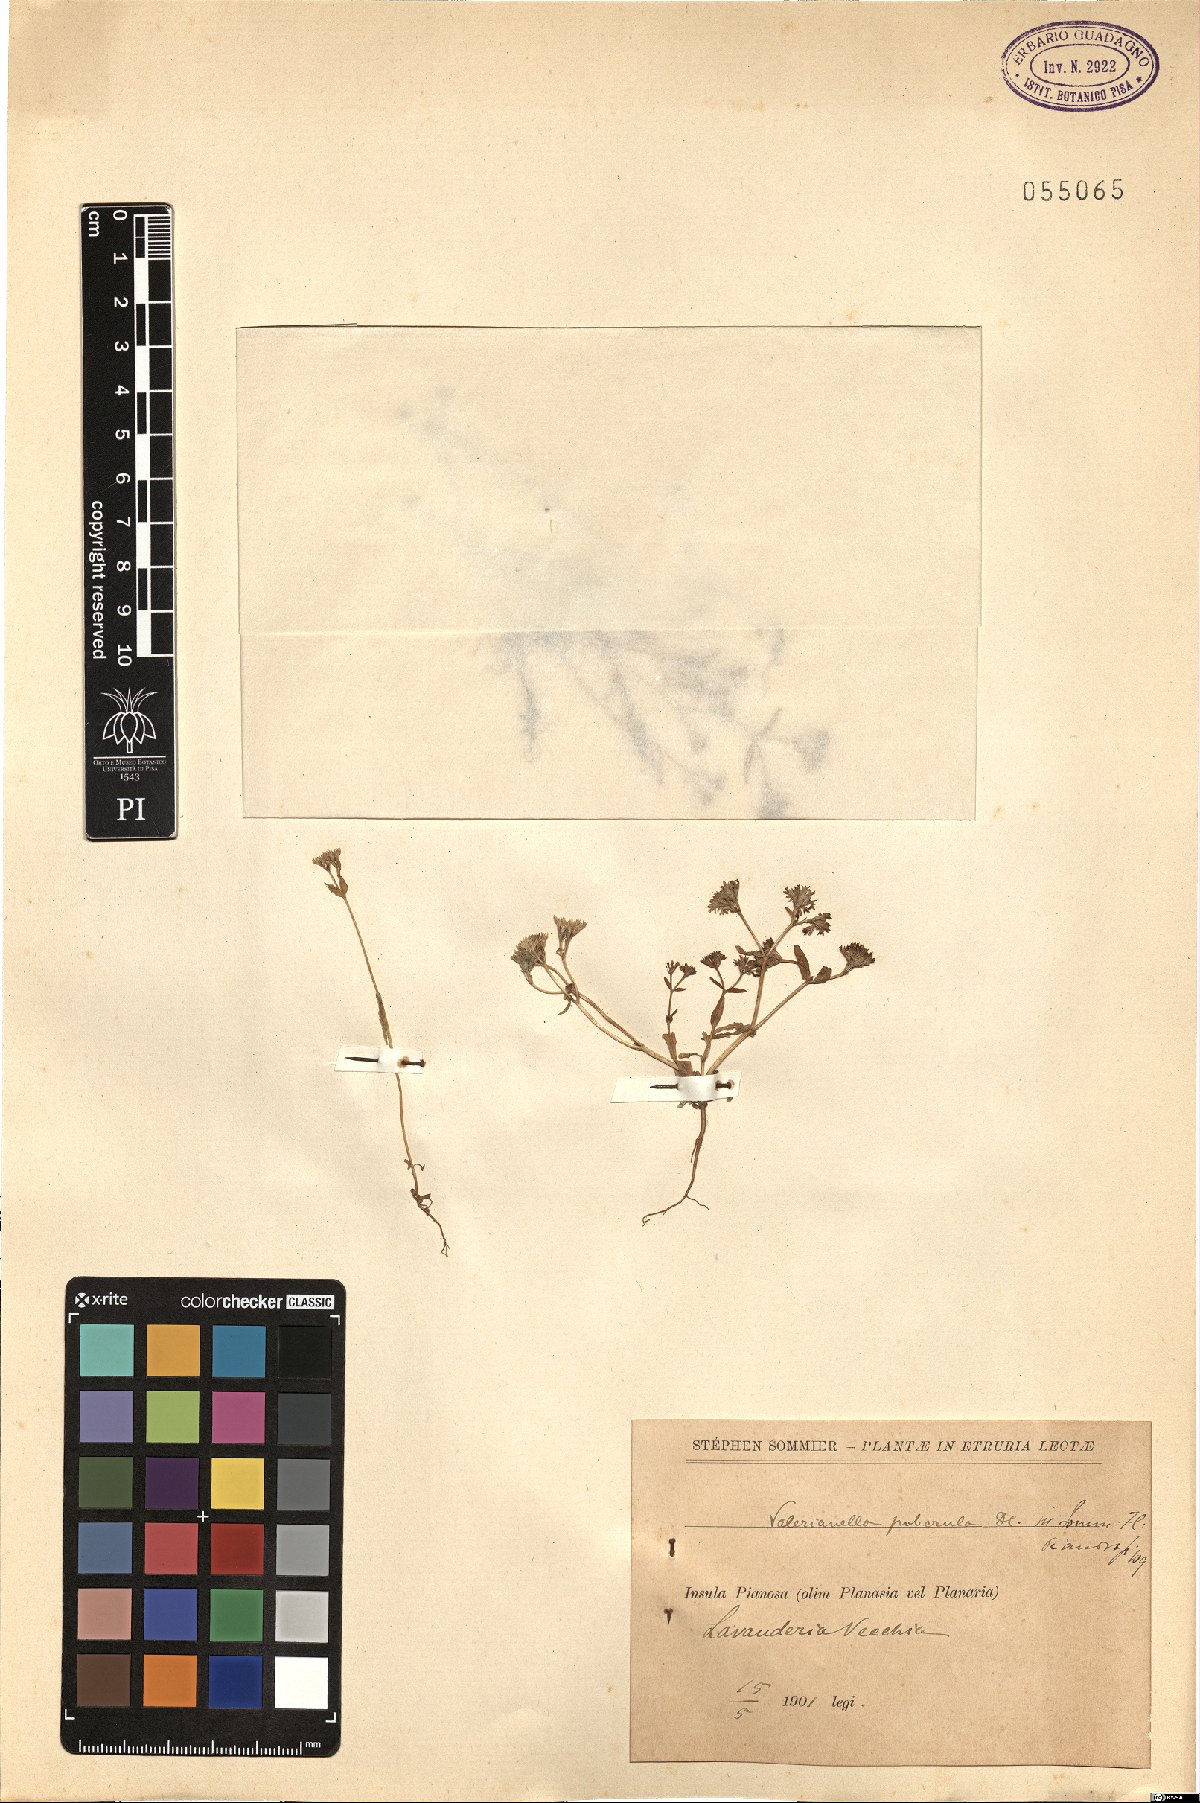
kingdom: Plantae
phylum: Tracheophyta
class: Magnoliopsida
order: Dipsacales
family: Caprifoliaceae
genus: Valerianella
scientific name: Valerianella microcarpa
